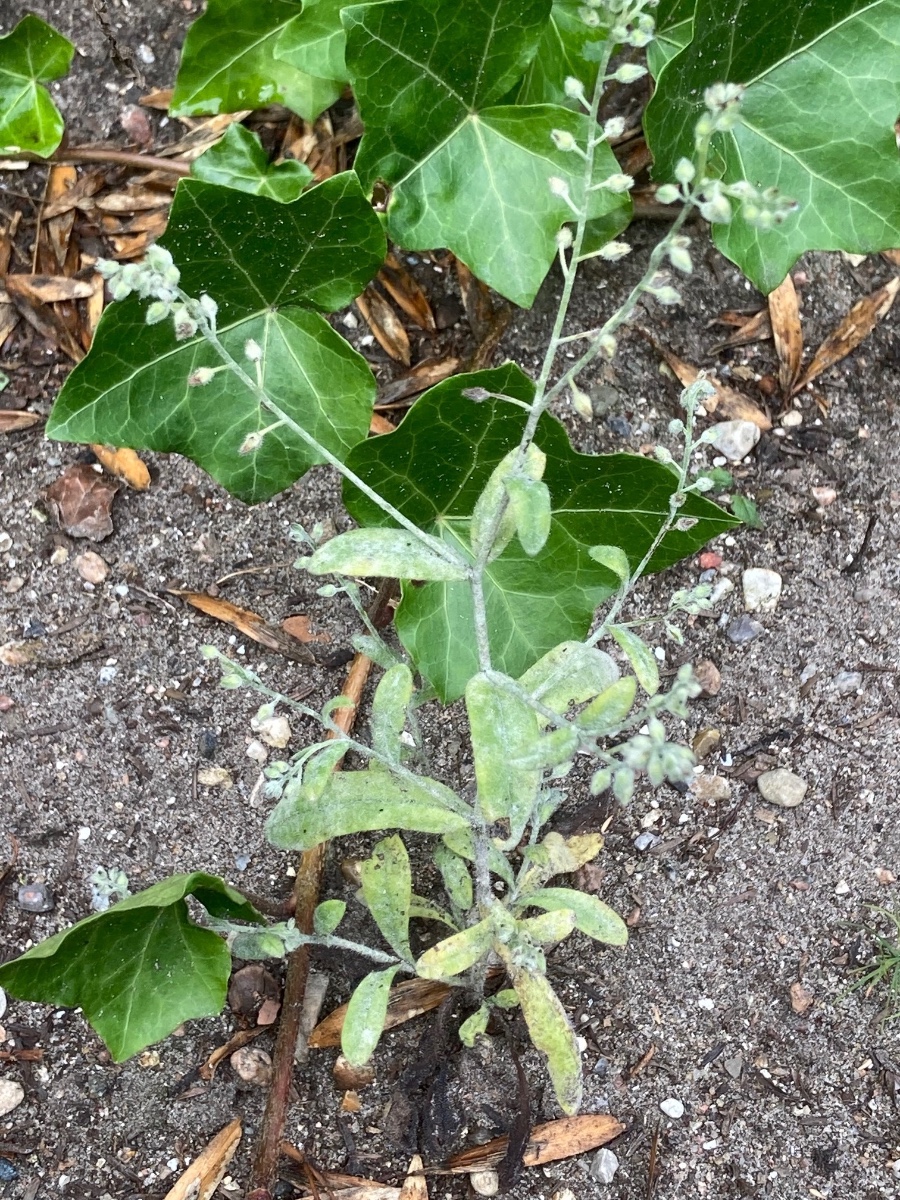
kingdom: Fungi
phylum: Ascomycota
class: Leotiomycetes
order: Helotiales
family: Erysiphaceae
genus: Golovinomyces
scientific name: Golovinomyces asperifolii
